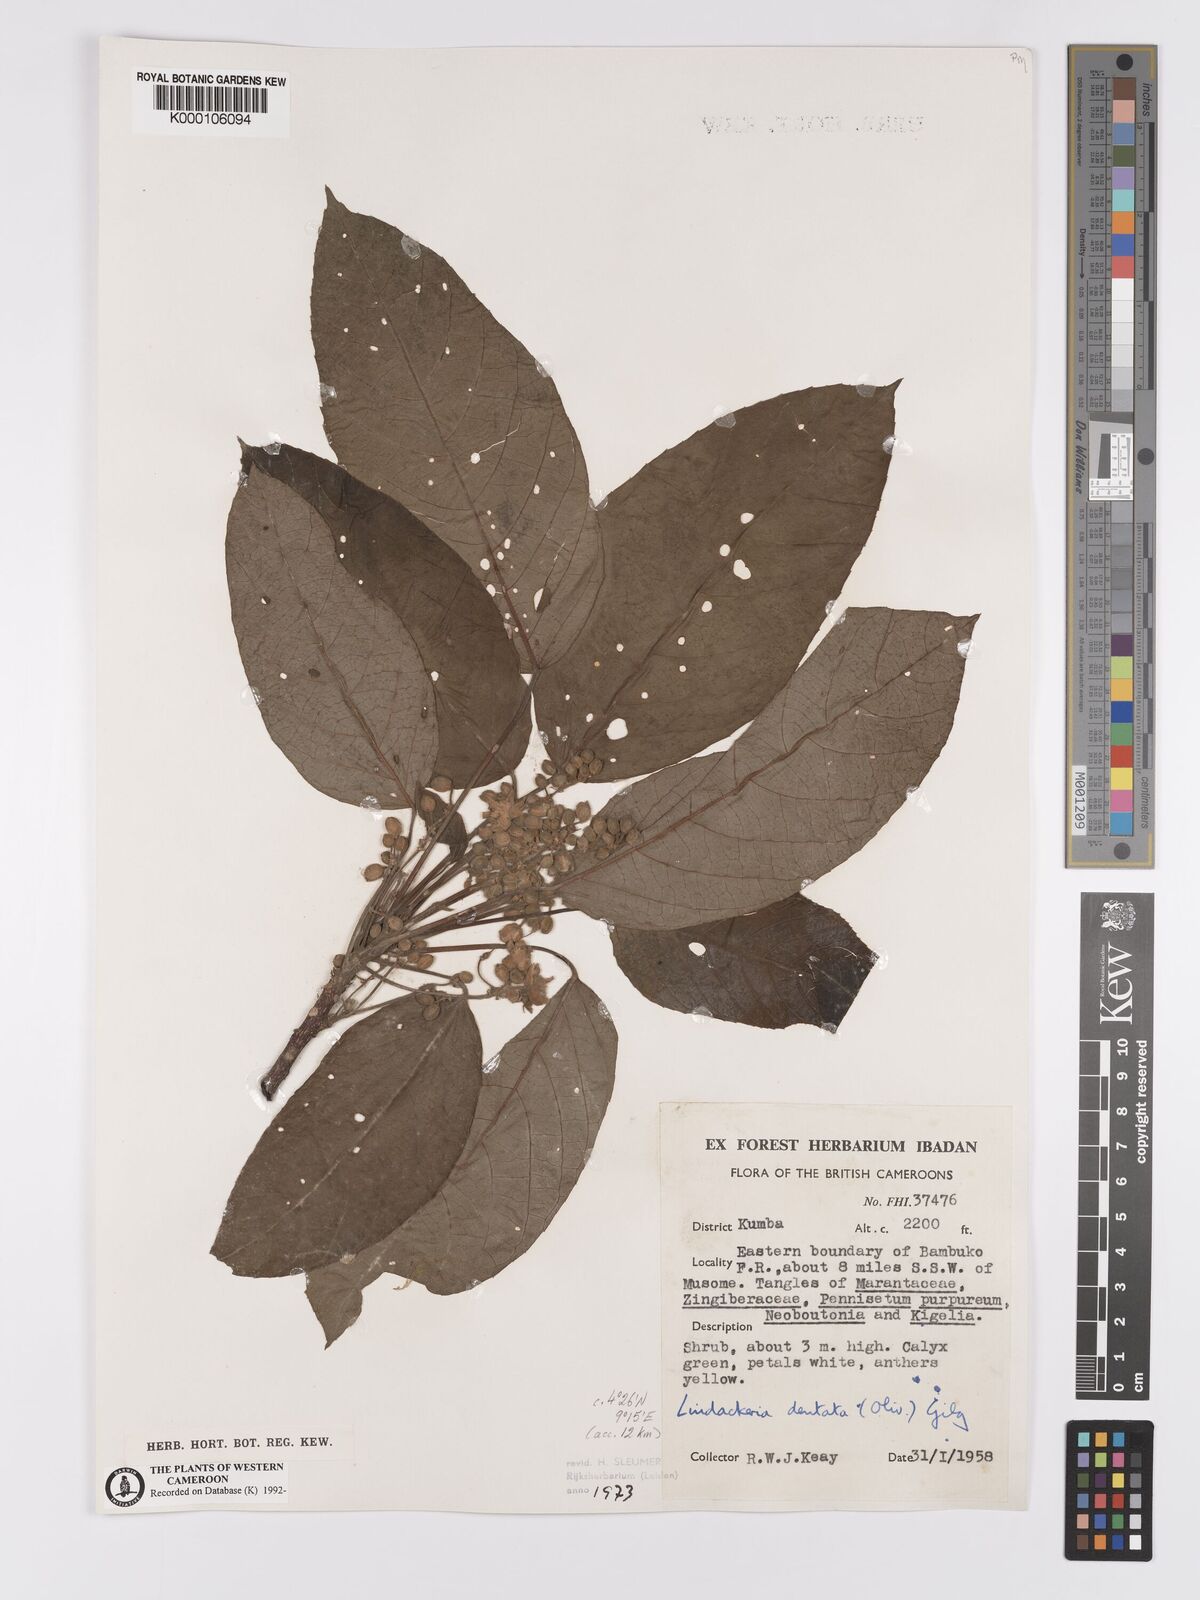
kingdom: Plantae
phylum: Tracheophyta
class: Magnoliopsida
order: Malpighiales
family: Achariaceae
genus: Lindackeria
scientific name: Lindackeria dentata
